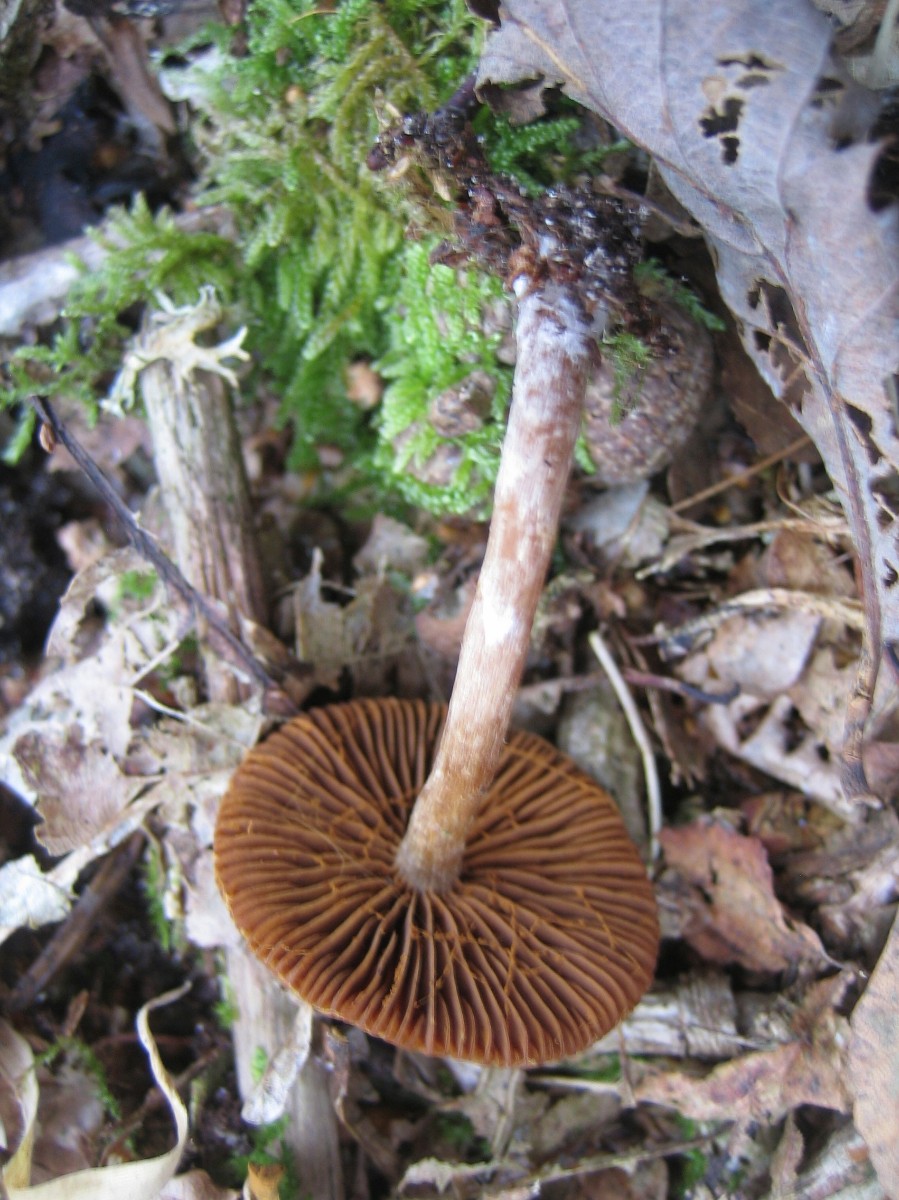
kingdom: Fungi
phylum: Basidiomycota
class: Agaricomycetes
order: Agaricales
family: Cortinariaceae
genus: Cortinarius
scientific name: Cortinarius
